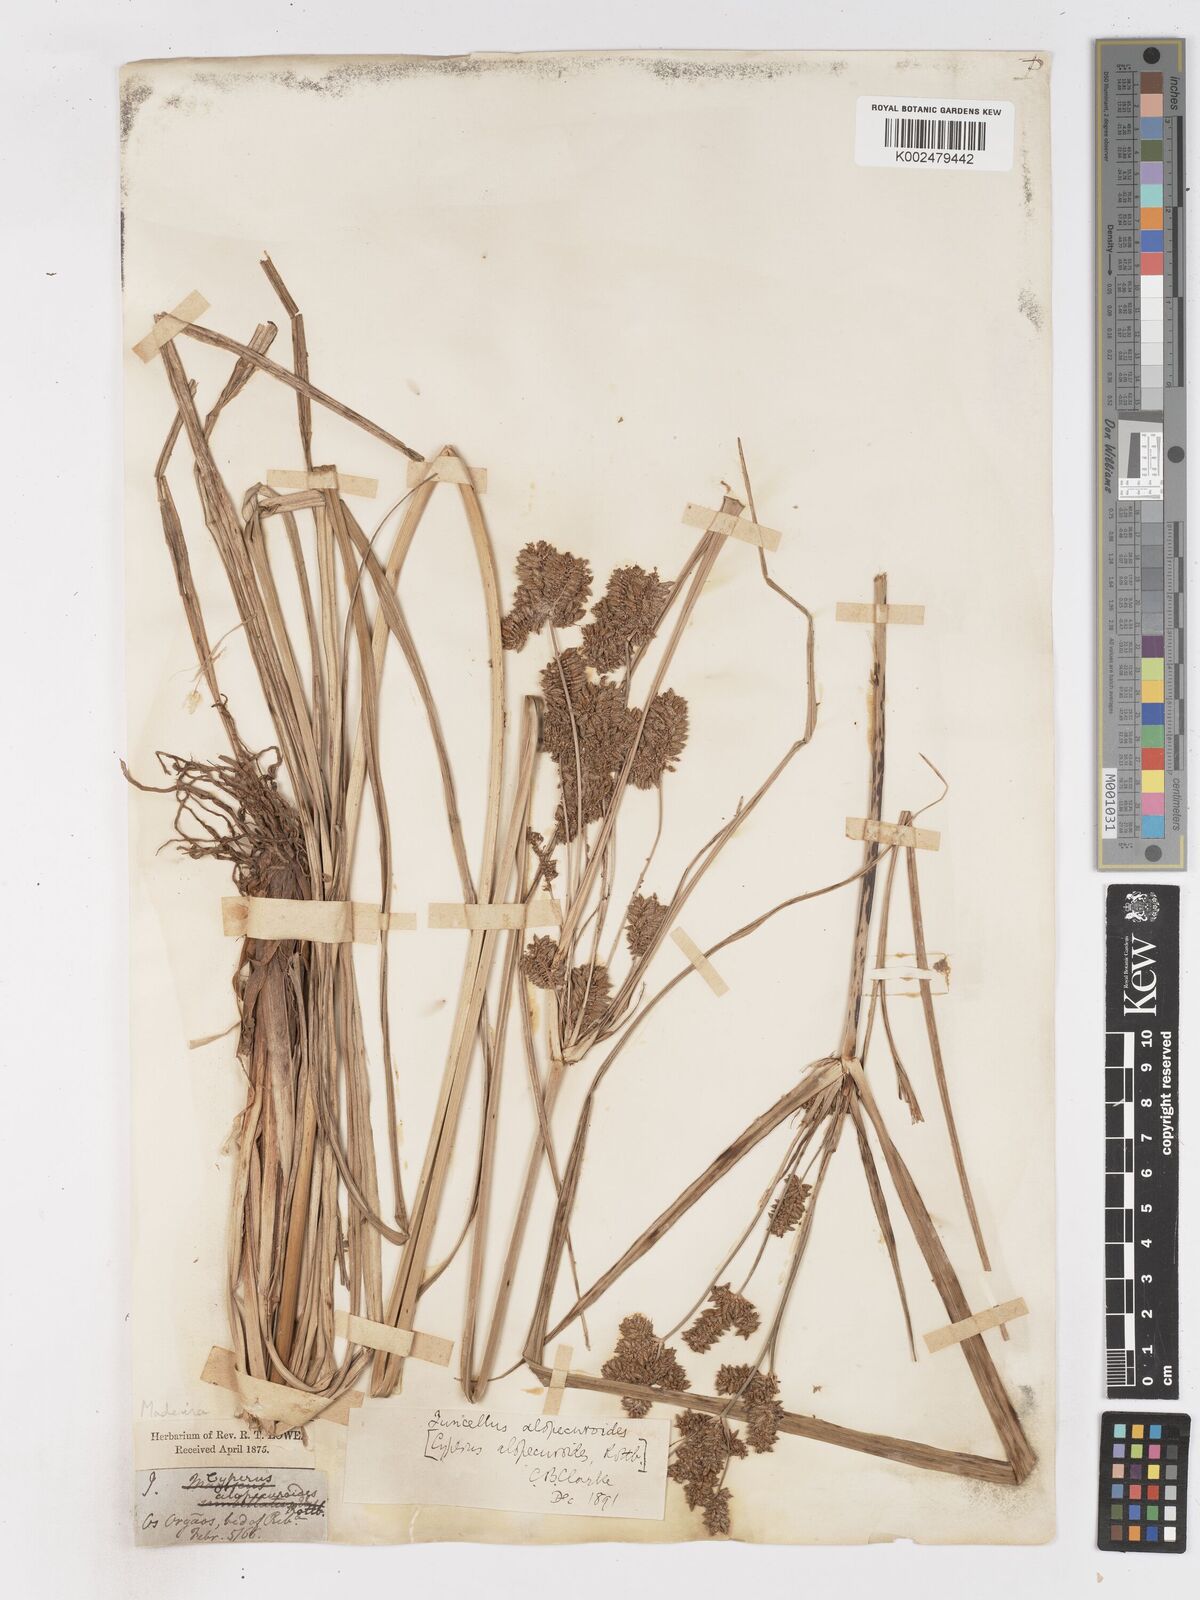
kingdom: Plantae
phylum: Tracheophyta
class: Liliopsida
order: Poales
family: Cyperaceae
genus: Cyperus
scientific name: Cyperus alopecuroides
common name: Foxtail flatsedge
